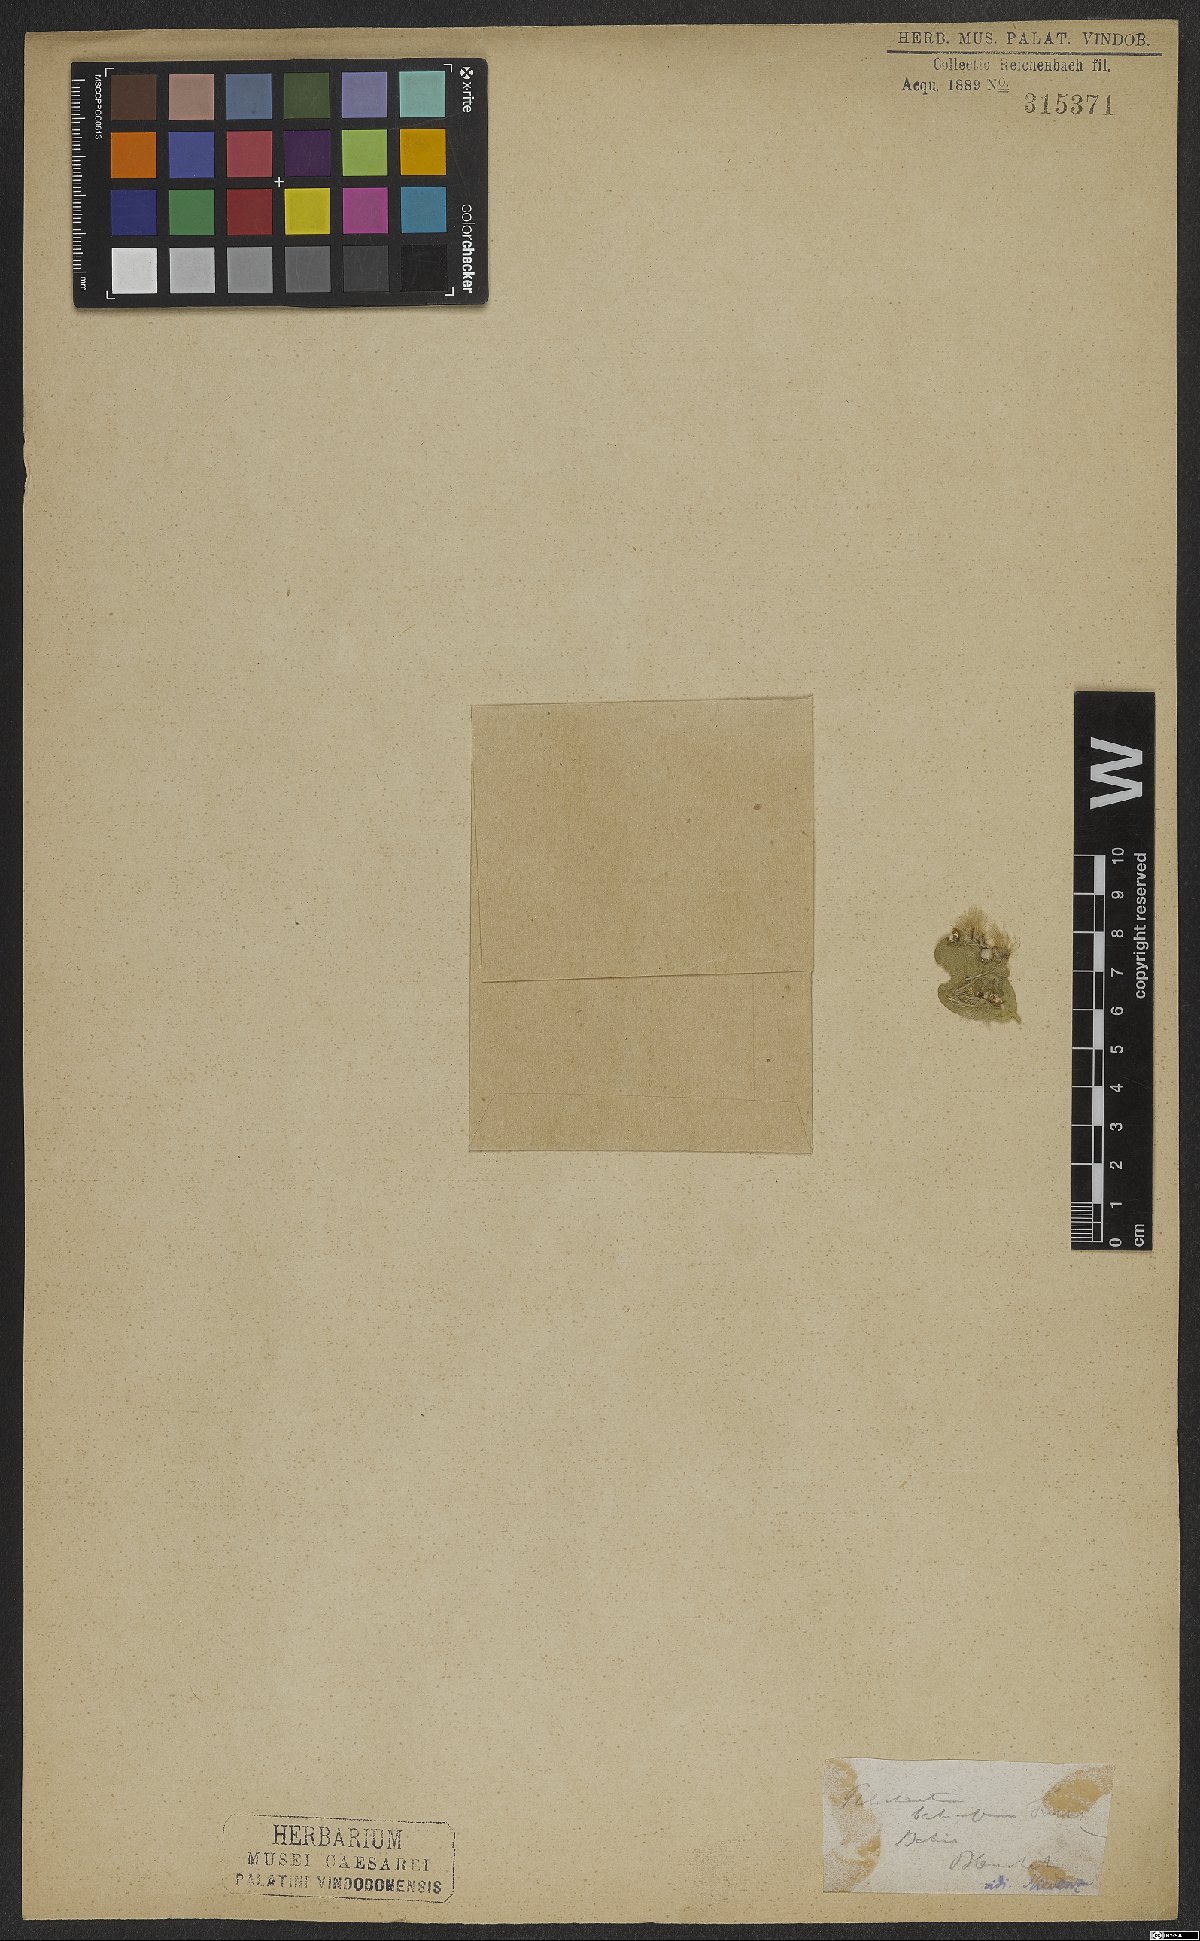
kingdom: Plantae
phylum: Tracheophyta
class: Magnoliopsida
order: Malpighiales
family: Malpighiaceae
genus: Ptilochaeta
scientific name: Ptilochaeta bahiensis
